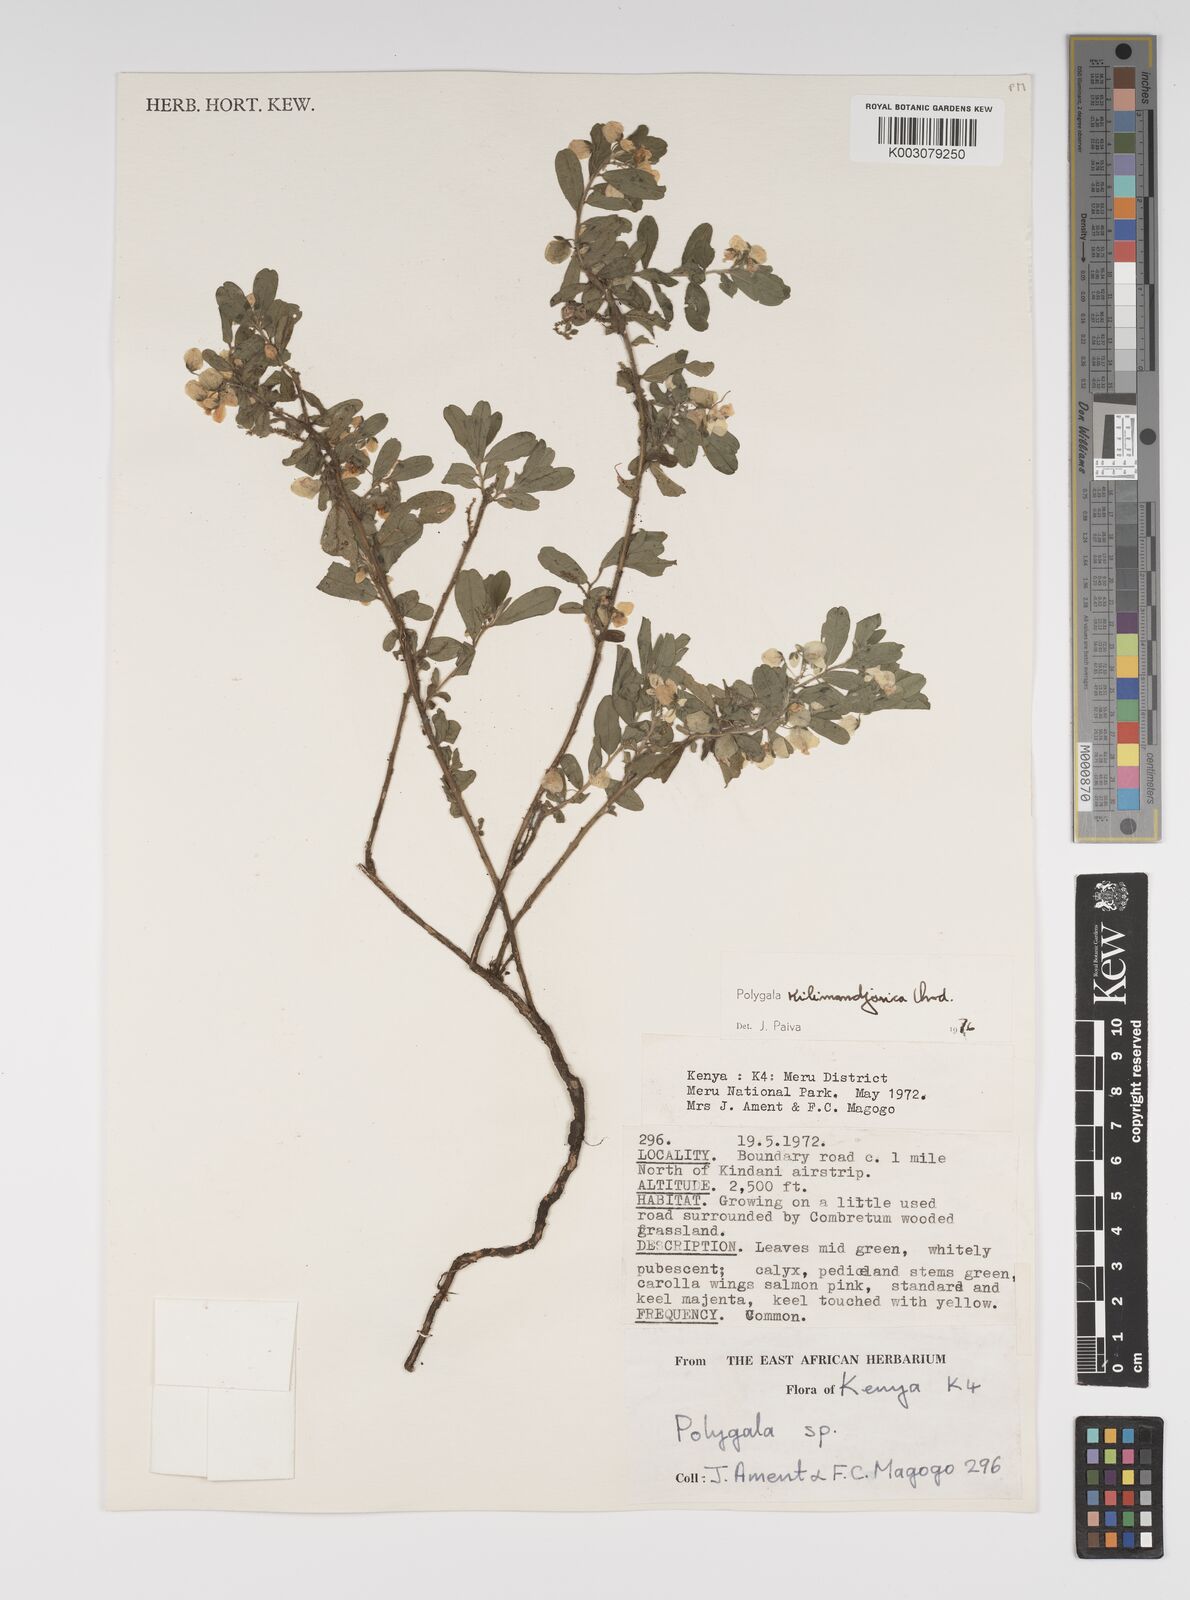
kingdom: Plantae
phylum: Tracheophyta
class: Magnoliopsida
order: Fabales
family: Polygalaceae
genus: Polygala
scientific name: Polygala kilimandjarica
